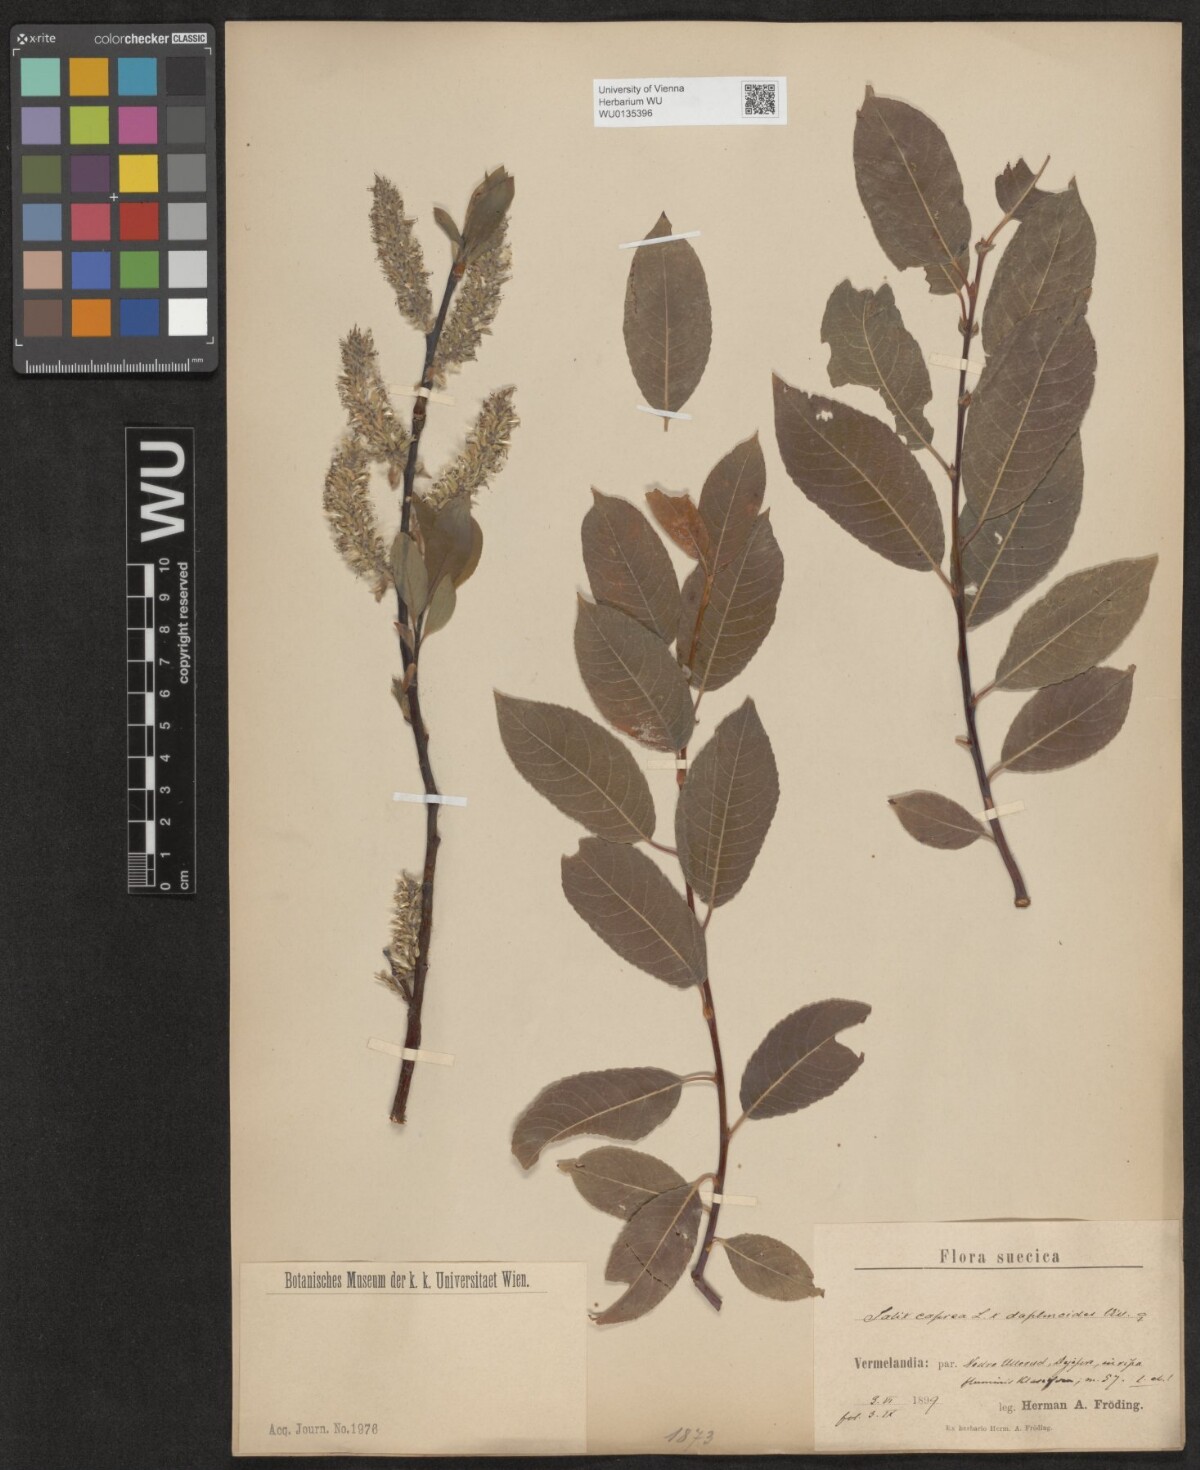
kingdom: Plantae
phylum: Tracheophyta
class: Magnoliopsida
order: Malpighiales
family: Salicaceae
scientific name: Salicaceae
